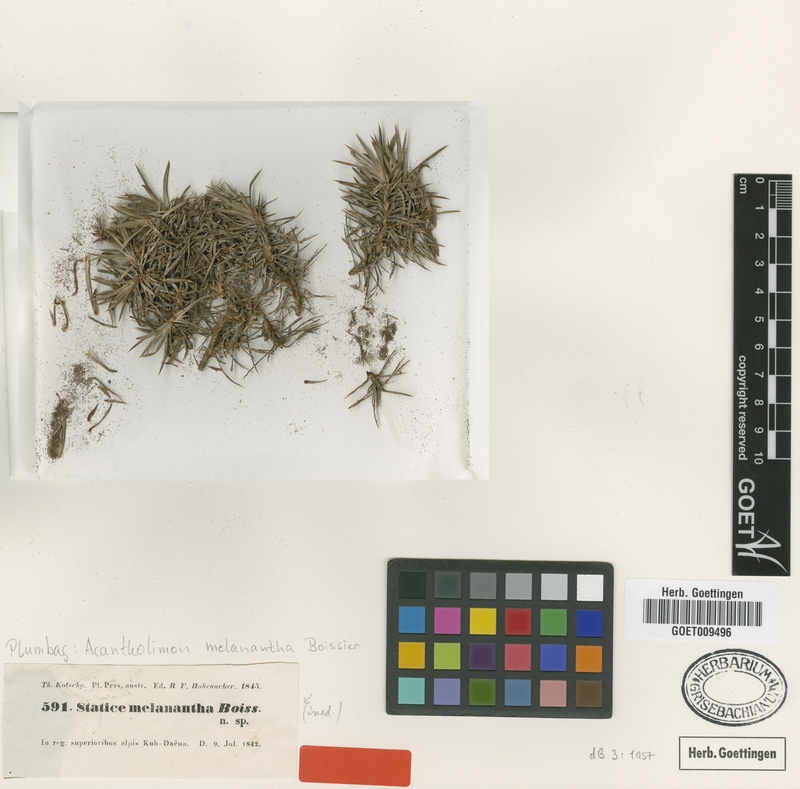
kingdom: Plantae
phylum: Tracheophyta
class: Magnoliopsida
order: Caryophyllales
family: Plumbaginaceae
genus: Acantholimon
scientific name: Acantholimon melananthum
